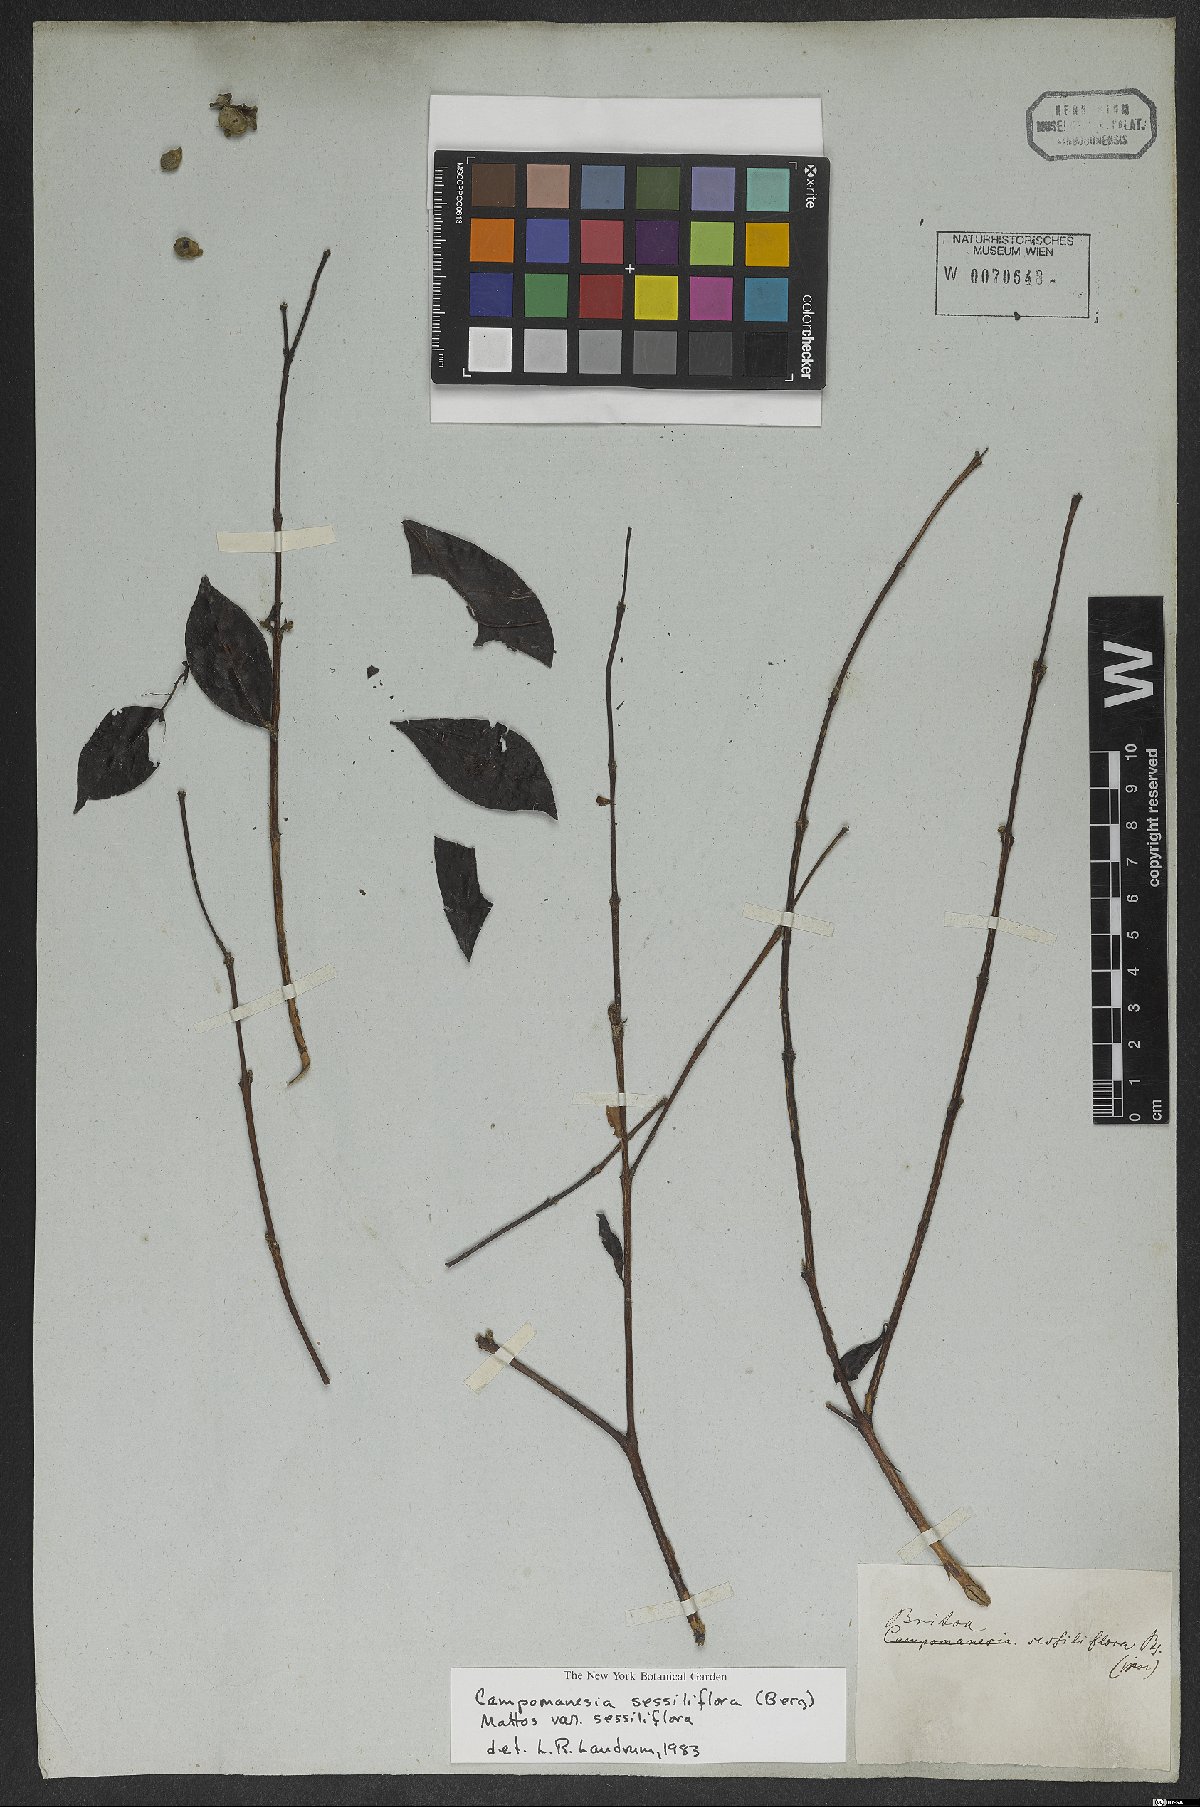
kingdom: Plantae
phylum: Tracheophyta
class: Magnoliopsida
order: Myrtales
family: Myrtaceae
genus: Campomanesia
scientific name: Campomanesia sessiliflora
